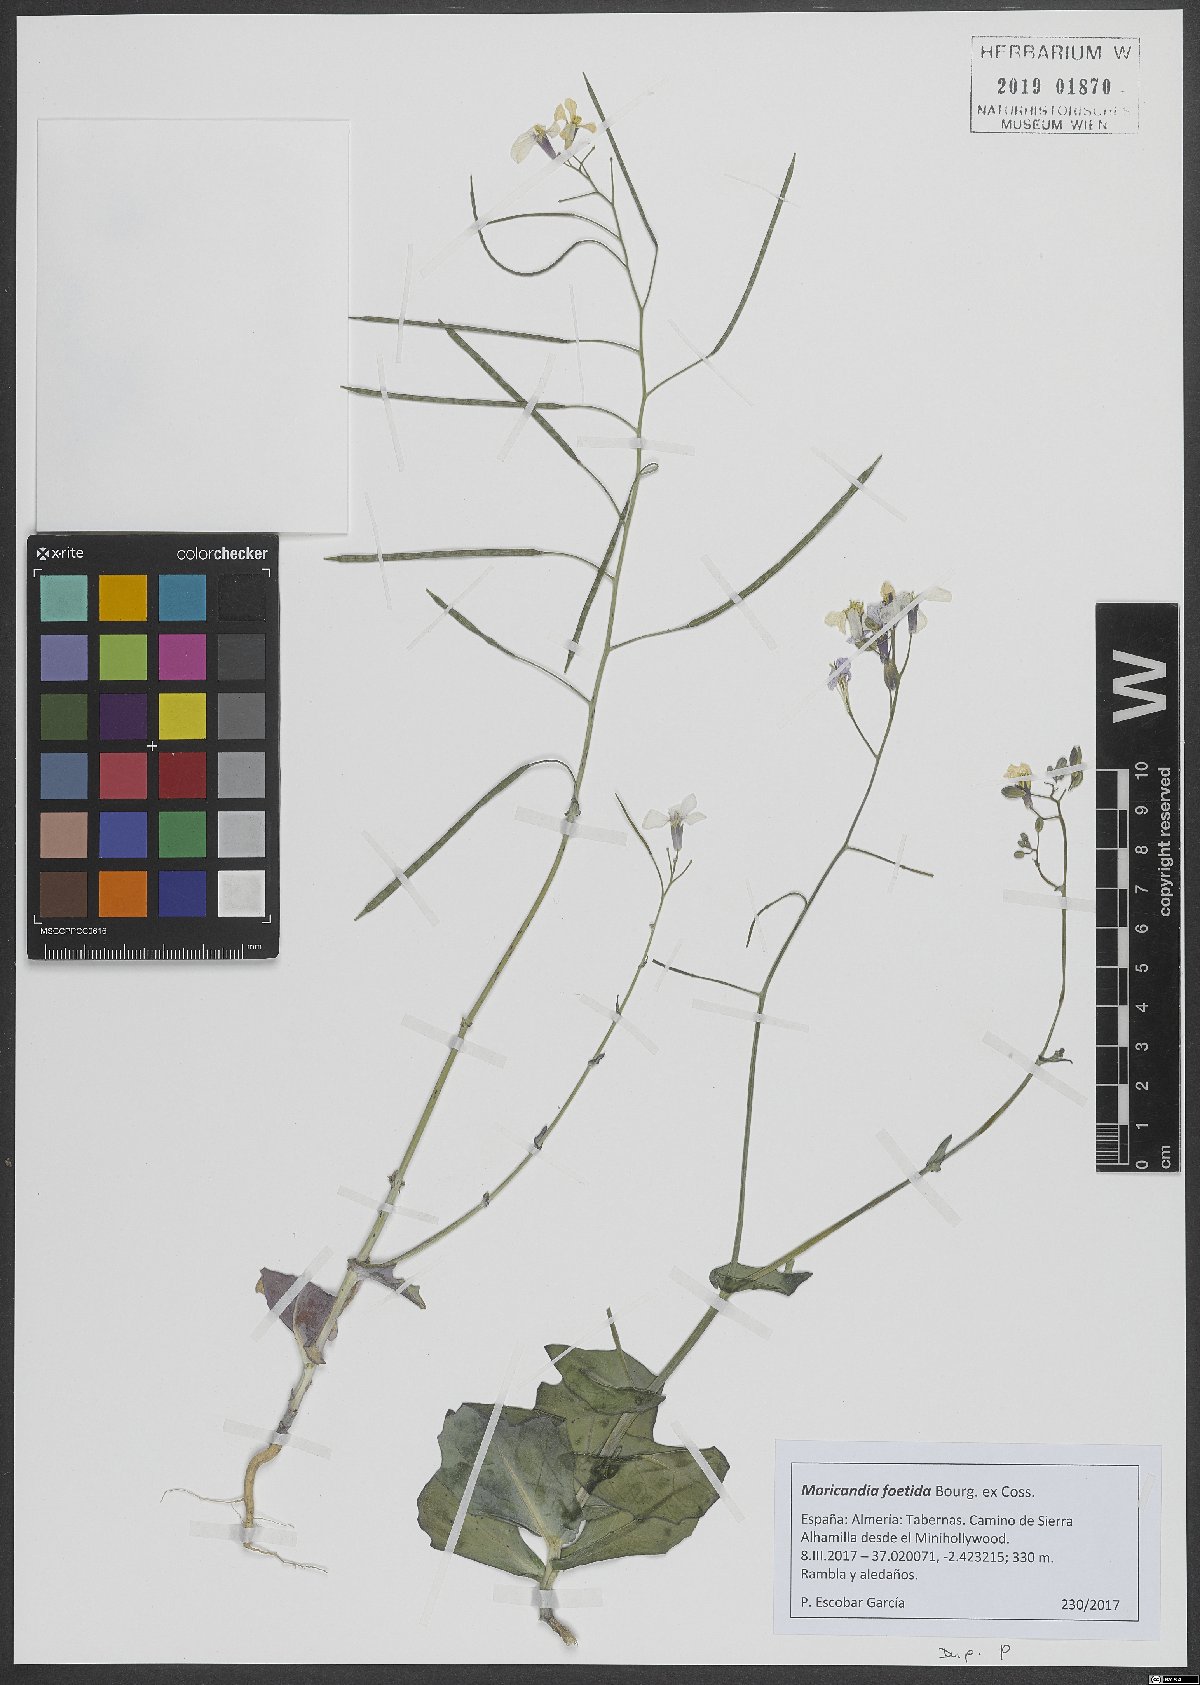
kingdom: Plantae
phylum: Tracheophyta
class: Magnoliopsida
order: Brassicales
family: Brassicaceae
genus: Moricandia
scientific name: Moricandia foetida
